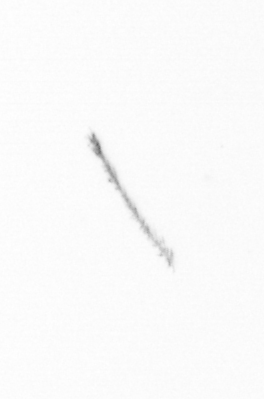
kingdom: Chromista
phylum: Ochrophyta
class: Bacillariophyceae
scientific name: Bacillariophyceae
